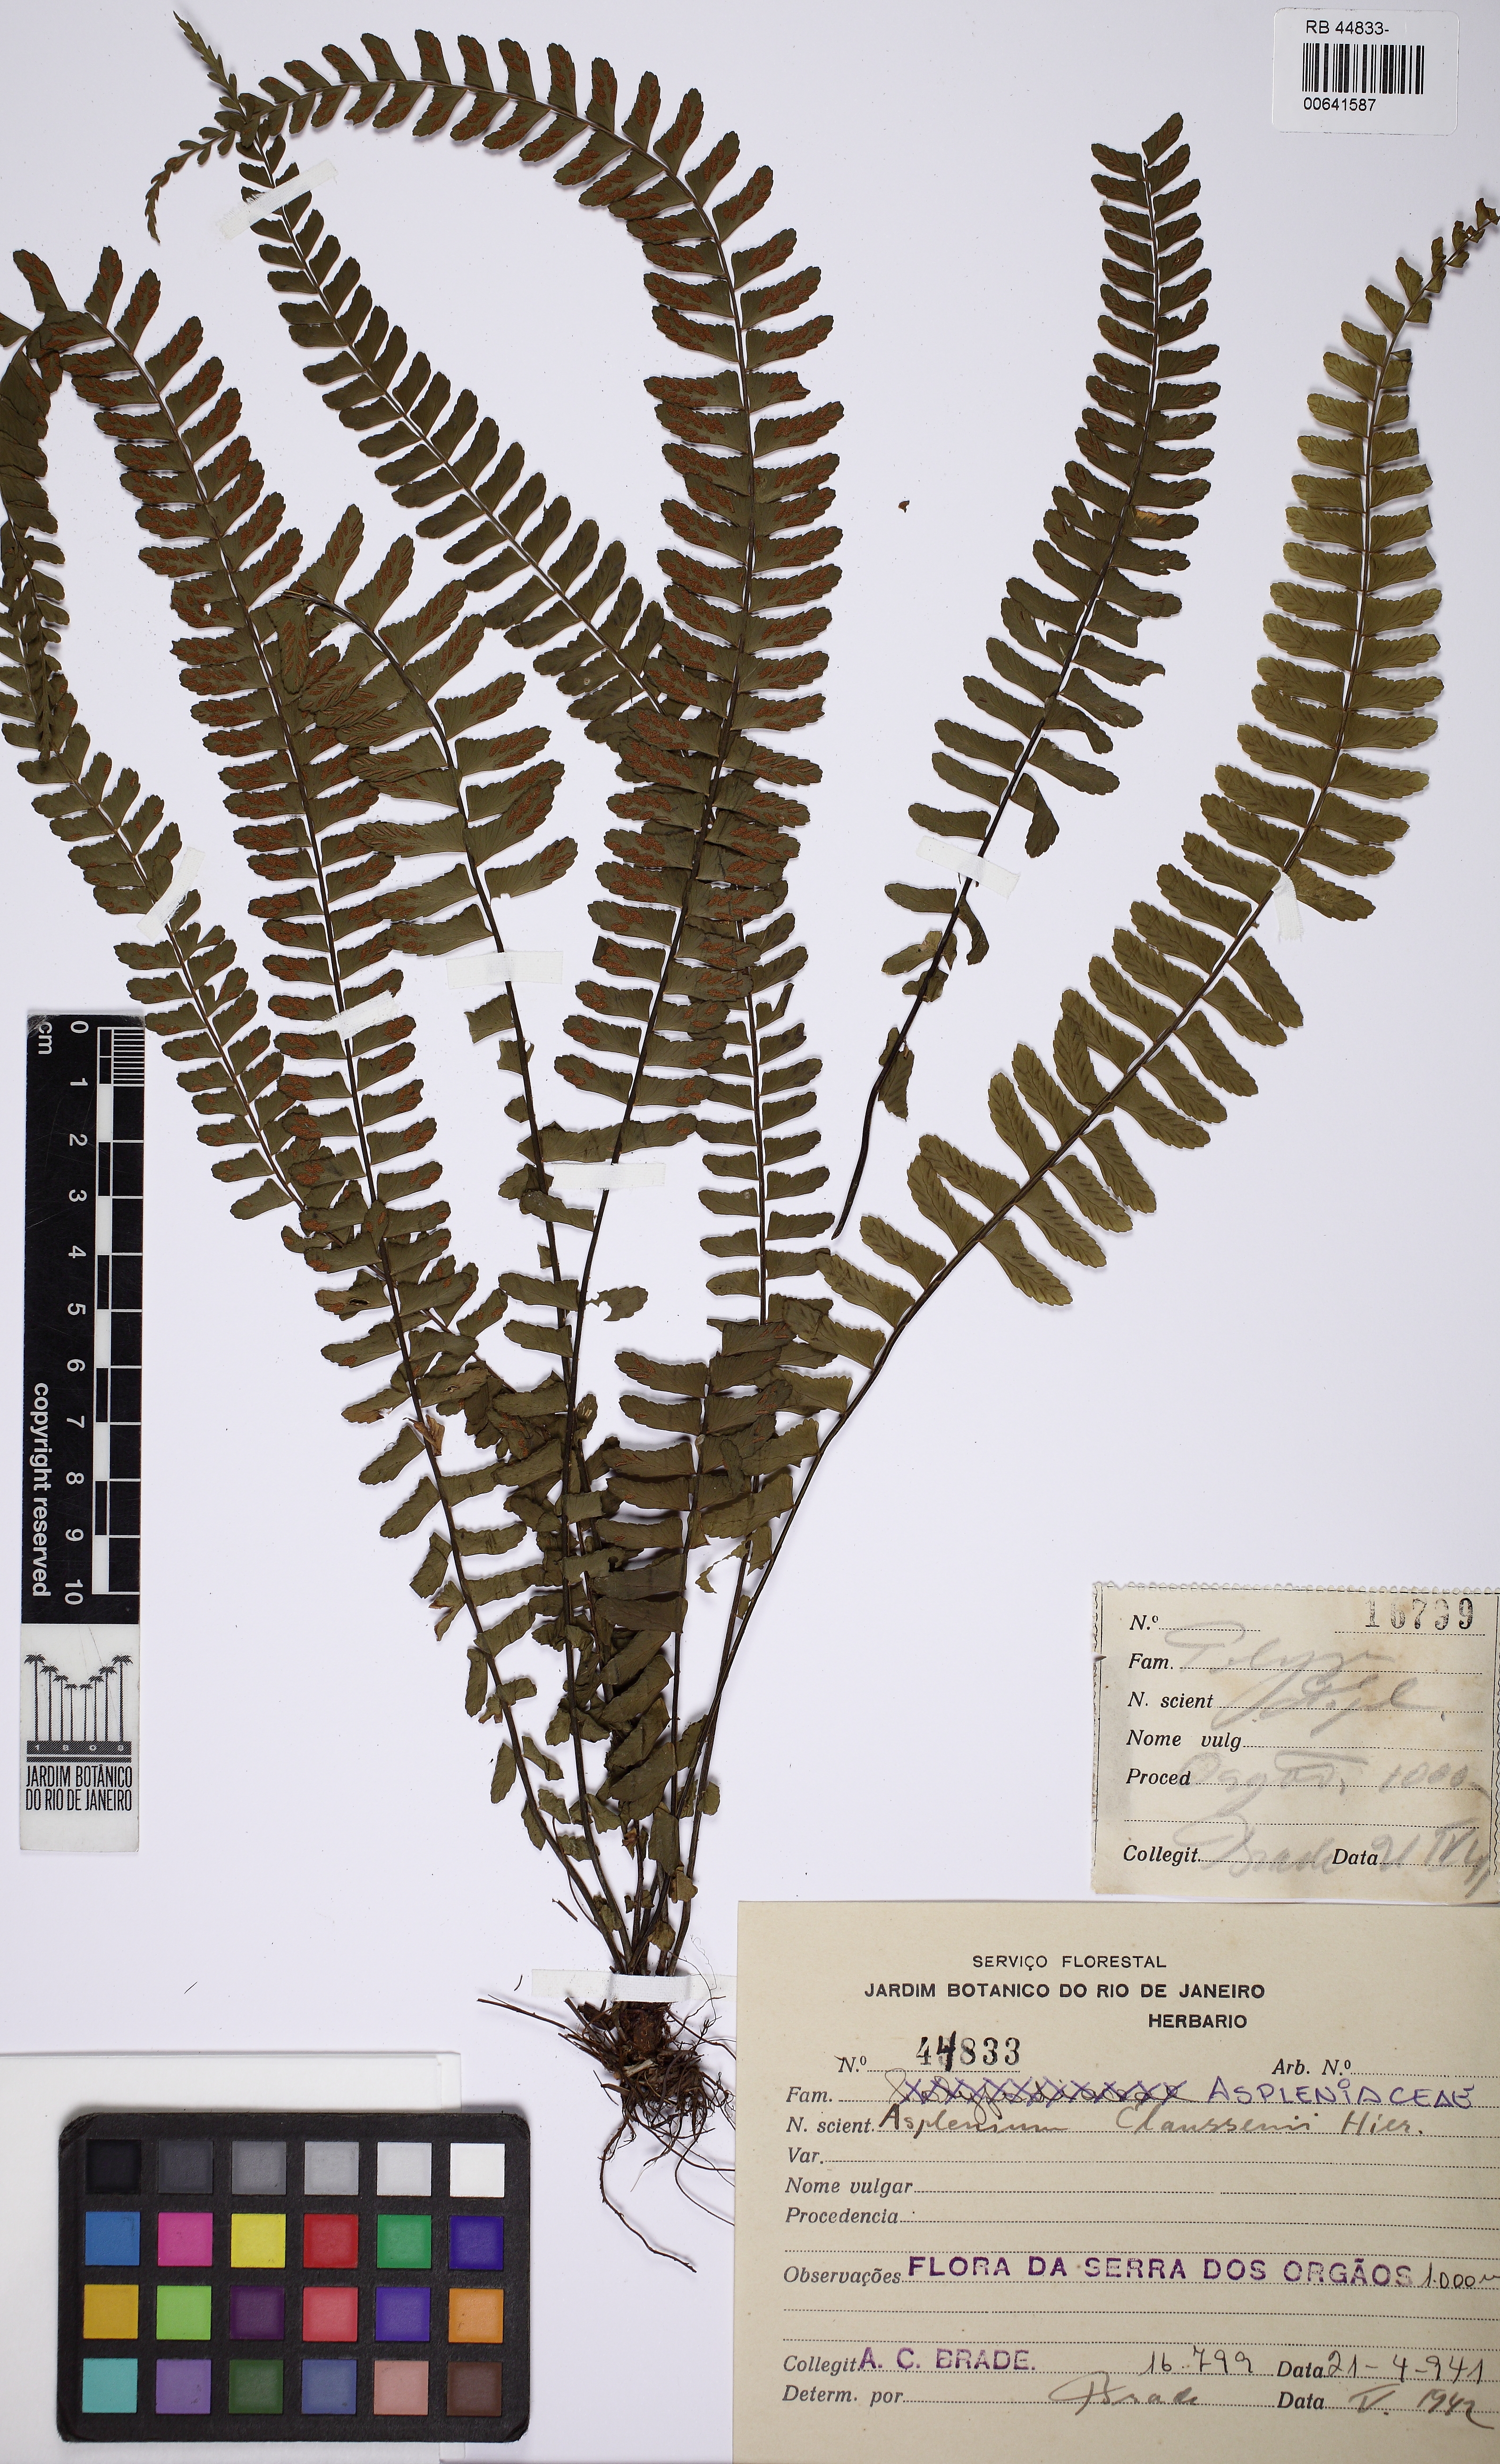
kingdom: Plantae
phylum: Tracheophyta
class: Polypodiopsida
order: Polypodiales
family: Aspleniaceae
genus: Asplenium
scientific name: Asplenium claussenii
